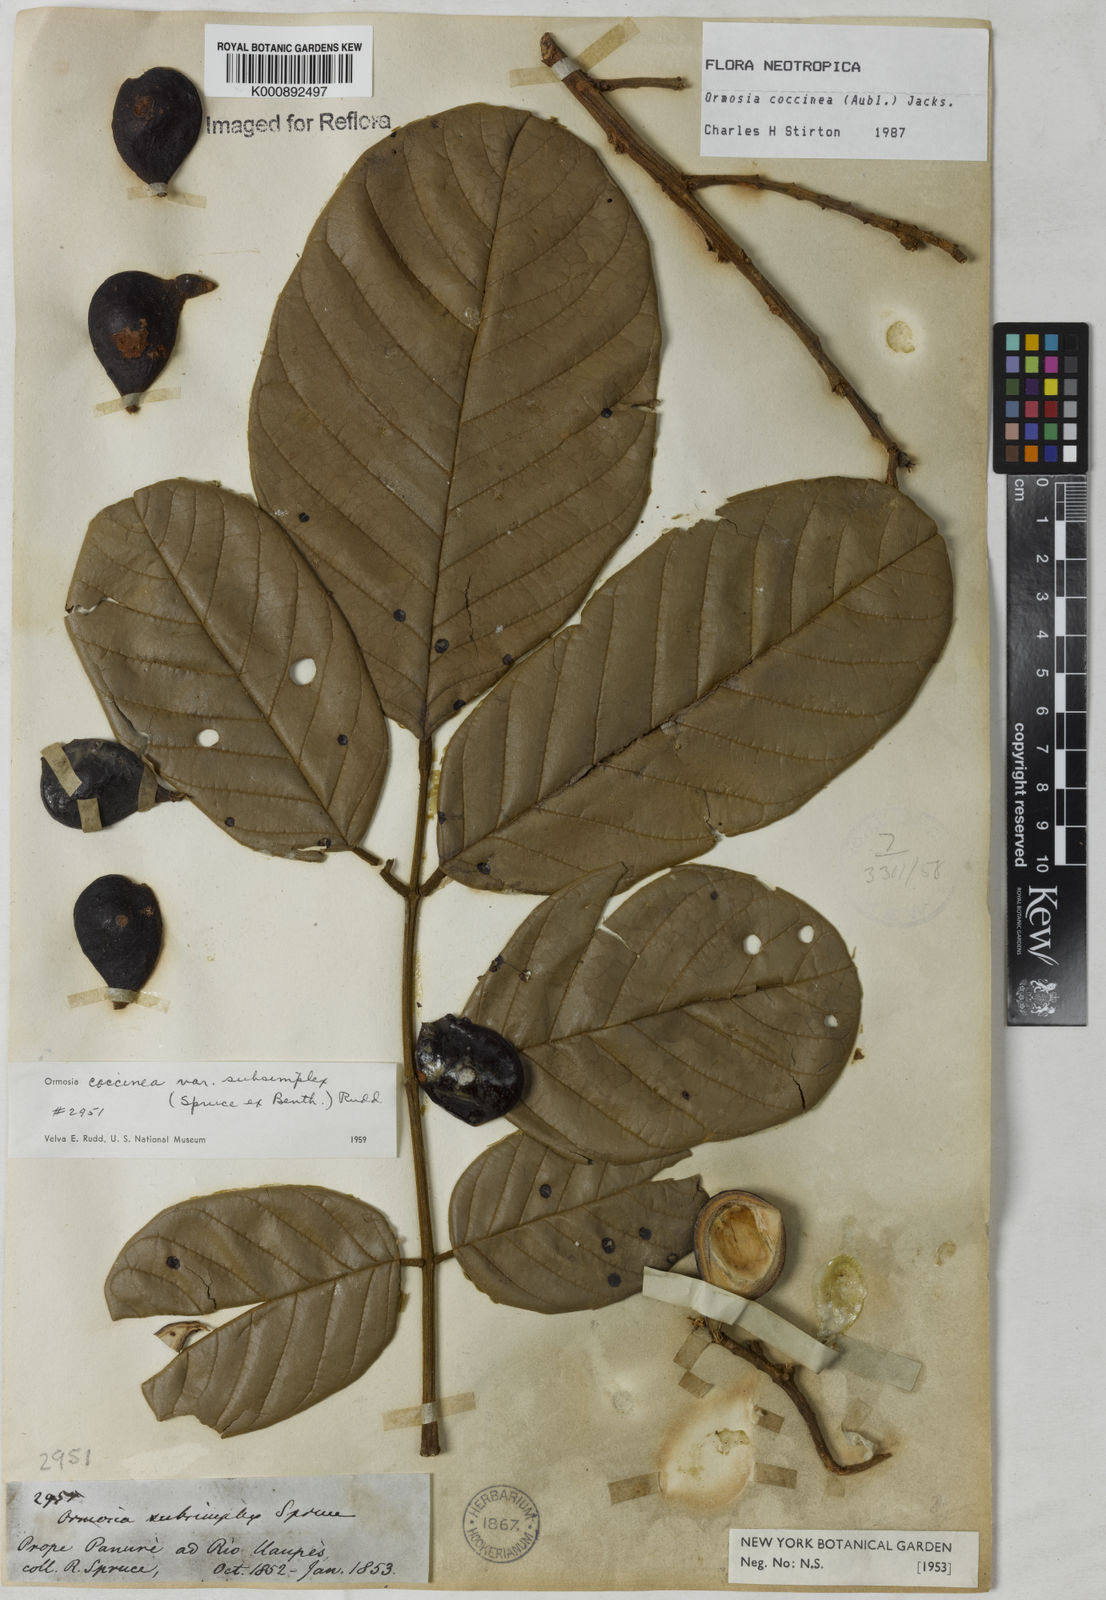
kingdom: Plantae
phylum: Tracheophyta
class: Magnoliopsida
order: Fabales
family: Fabaceae
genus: Ormosia
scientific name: Ormosia coccinea
